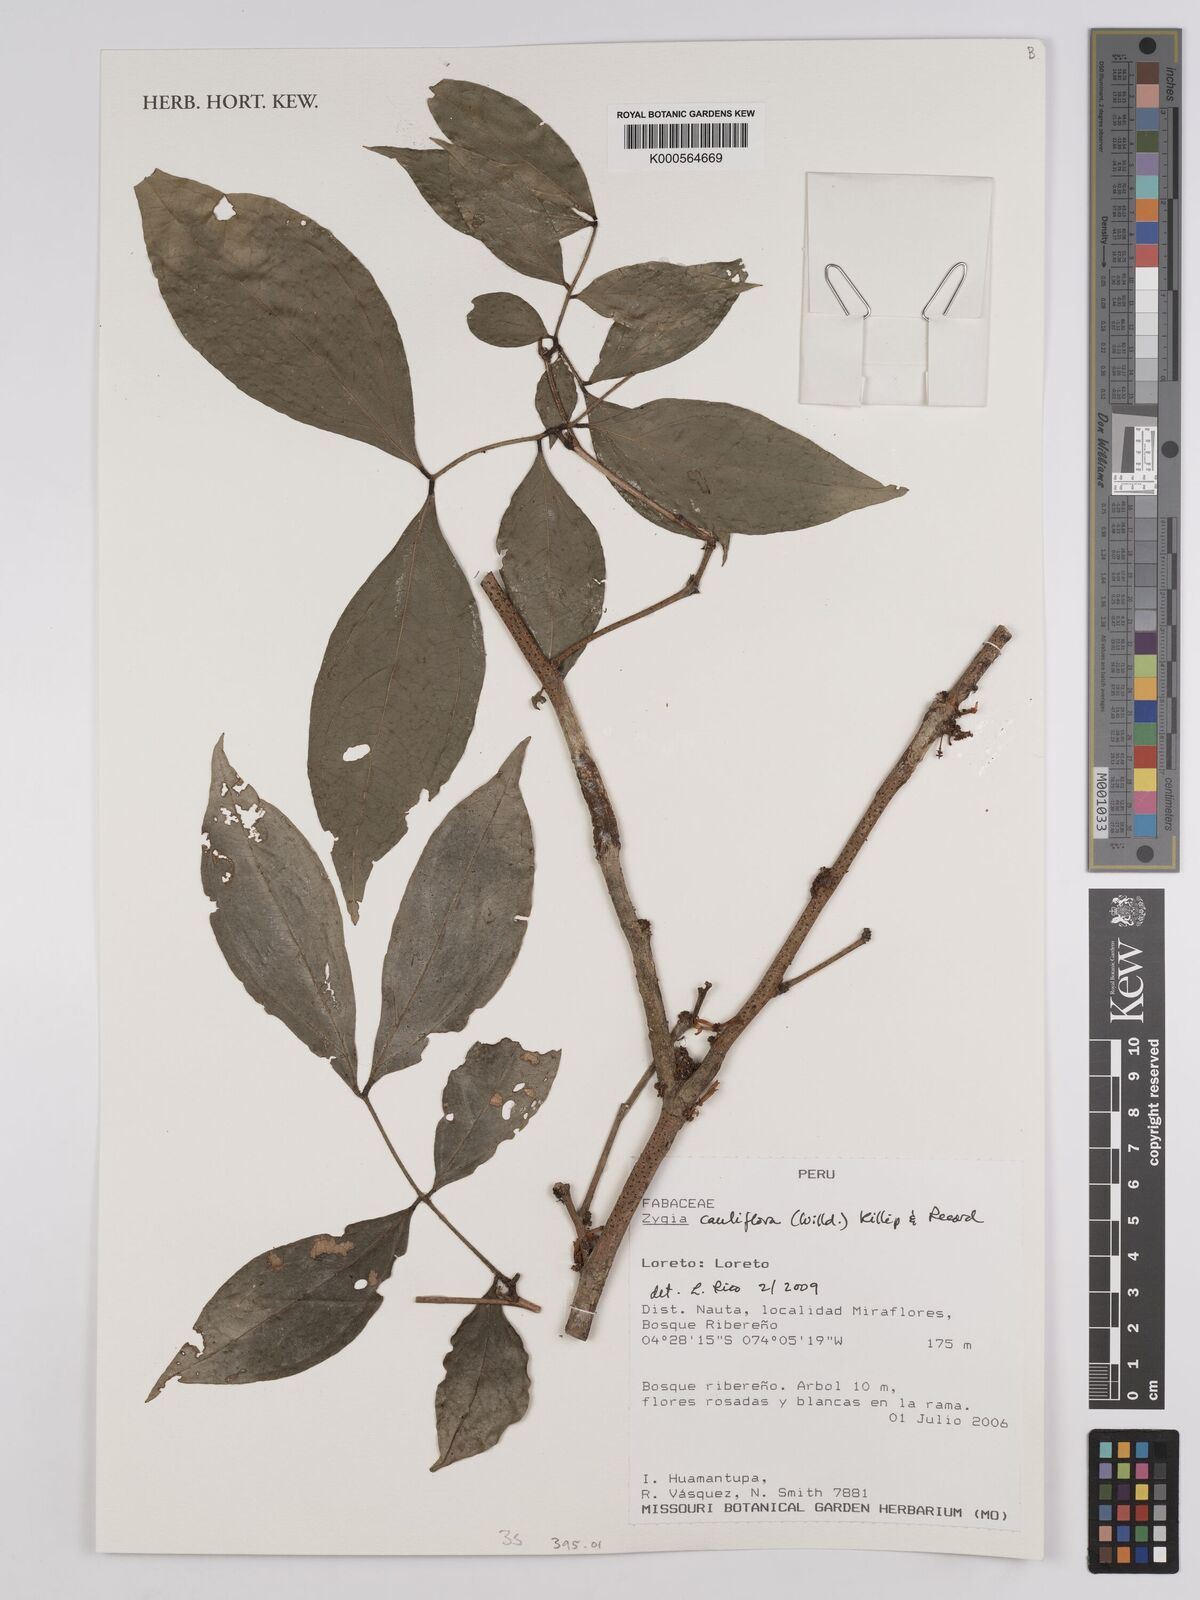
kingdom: Plantae
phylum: Tracheophyta
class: Magnoliopsida
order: Fabales
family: Fabaceae
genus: Zygia
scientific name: Zygia cauliflora
